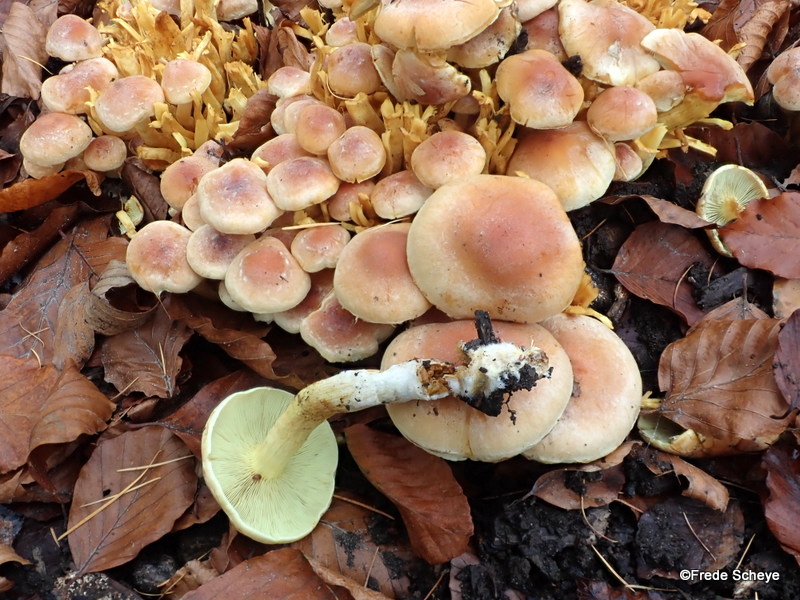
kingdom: Fungi
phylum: Basidiomycota
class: Agaricomycetes
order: Agaricales
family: Strophariaceae
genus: Hypholoma
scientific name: Hypholoma fasciculare
